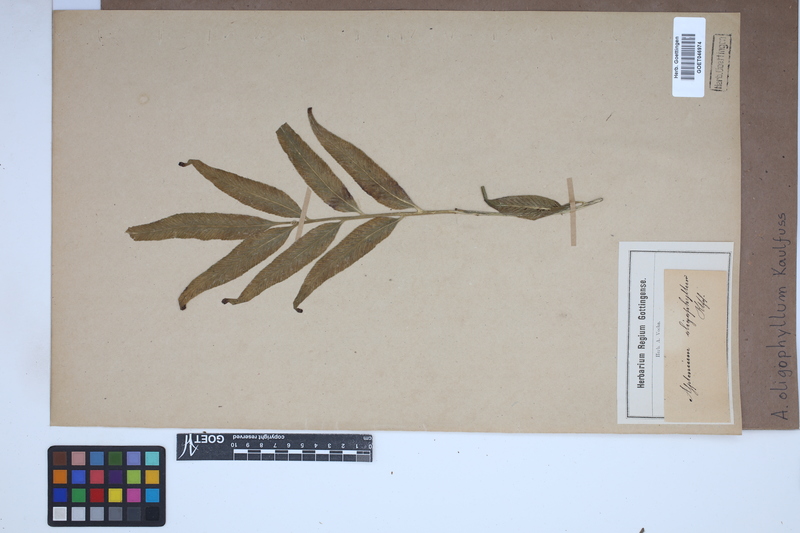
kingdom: Plantae
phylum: Tracheophyta
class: Polypodiopsida
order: Polypodiales
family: Aspleniaceae
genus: Asplenium
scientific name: Asplenium oligophyllum
